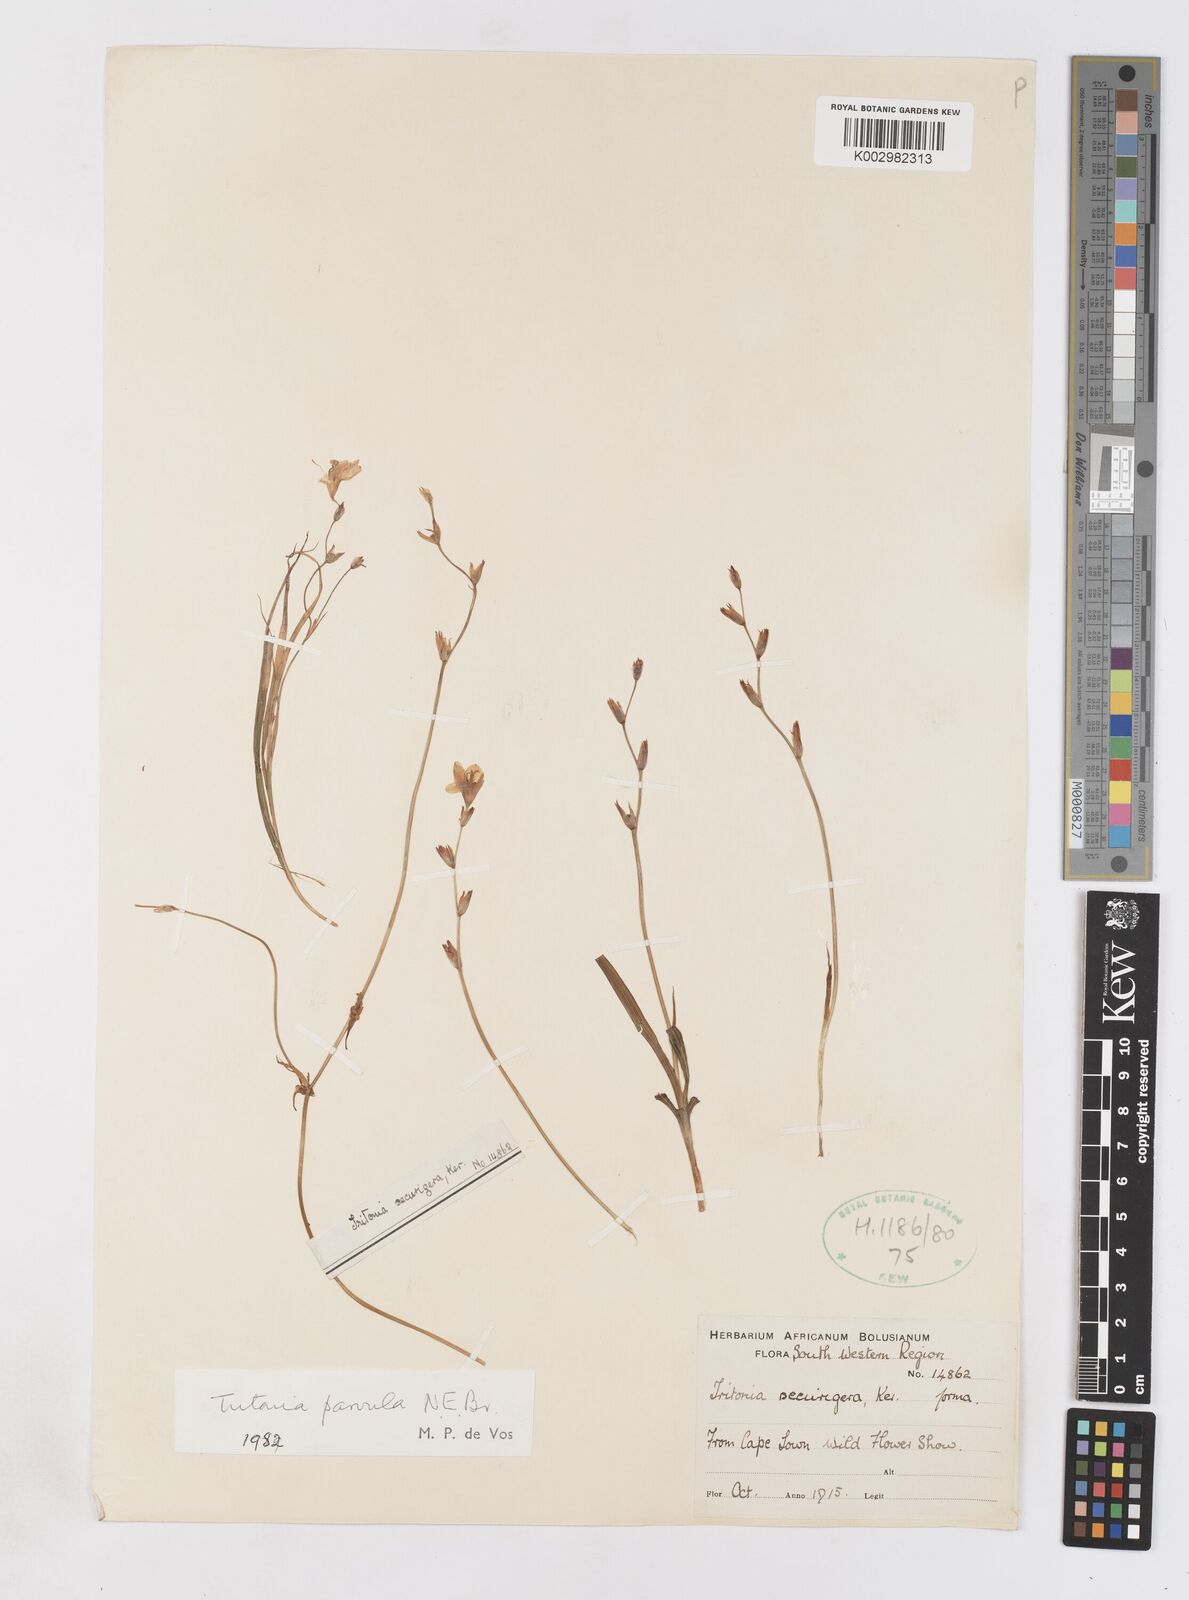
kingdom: Plantae
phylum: Tracheophyta
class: Liliopsida
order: Asparagales
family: Iridaceae
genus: Tritonia
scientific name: Tritonia parvula
